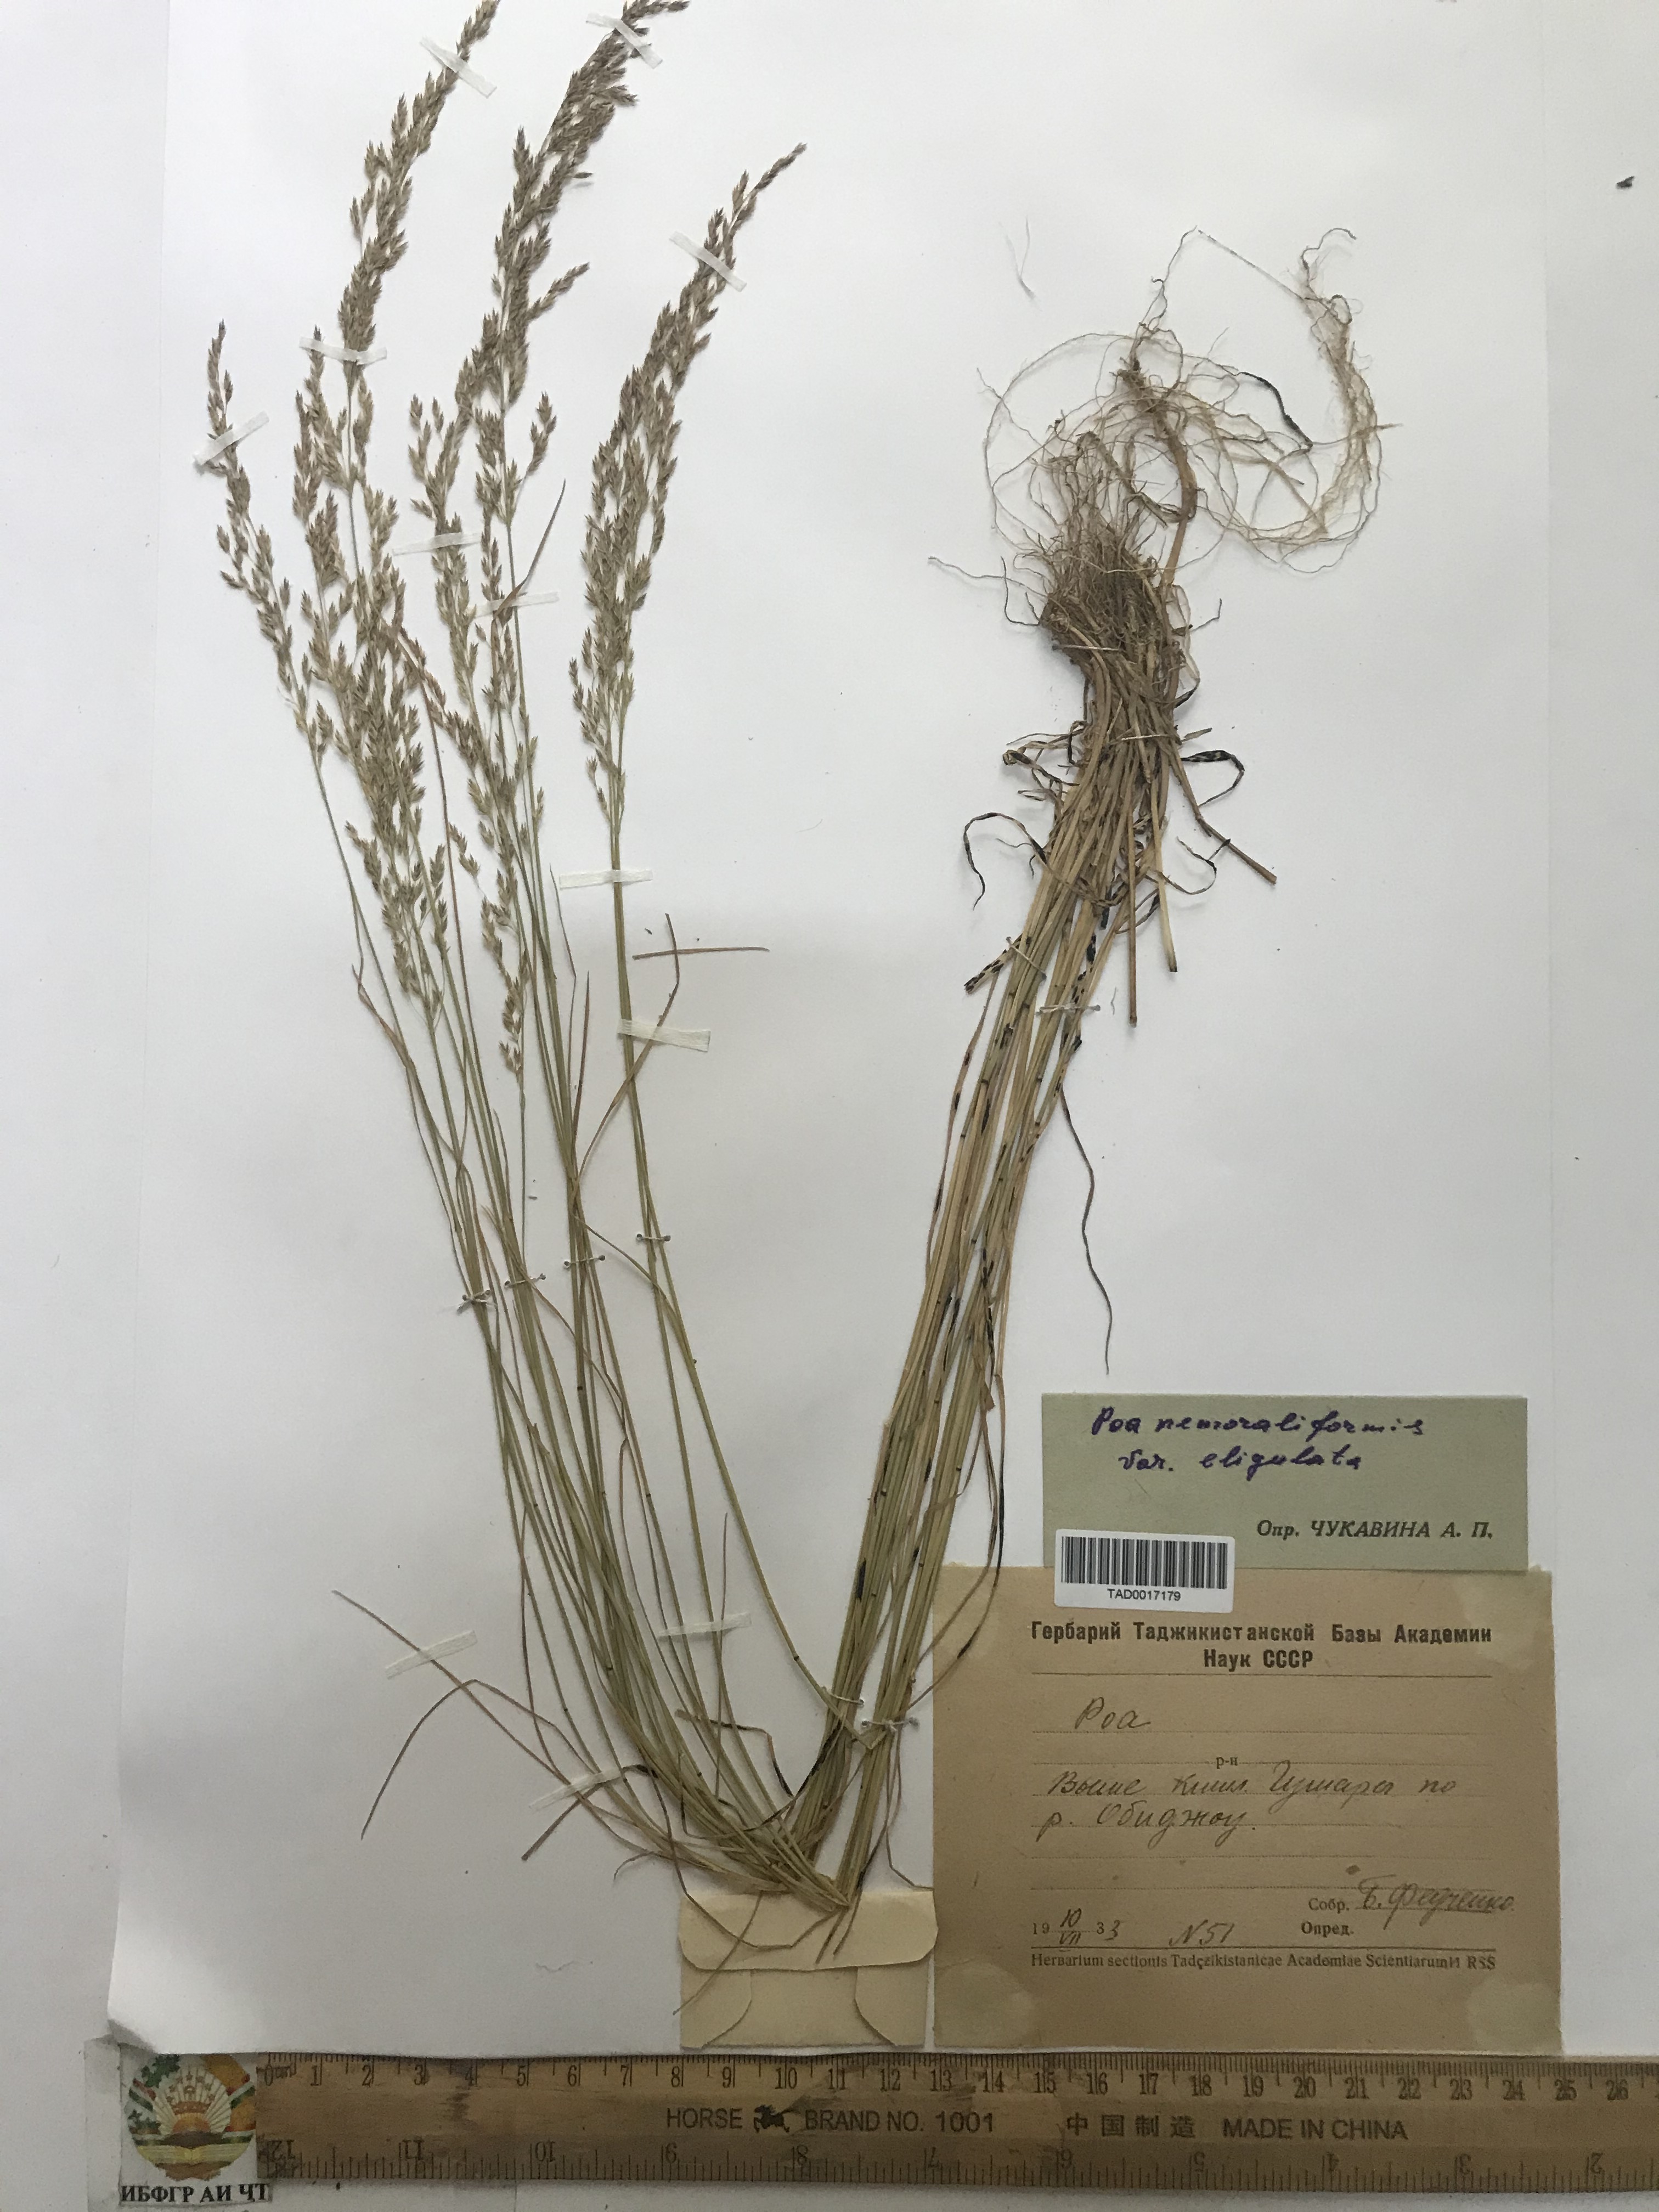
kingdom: Plantae
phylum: Tracheophyta
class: Liliopsida
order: Poales
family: Poaceae
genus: Poa
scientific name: Poa urssulensis
